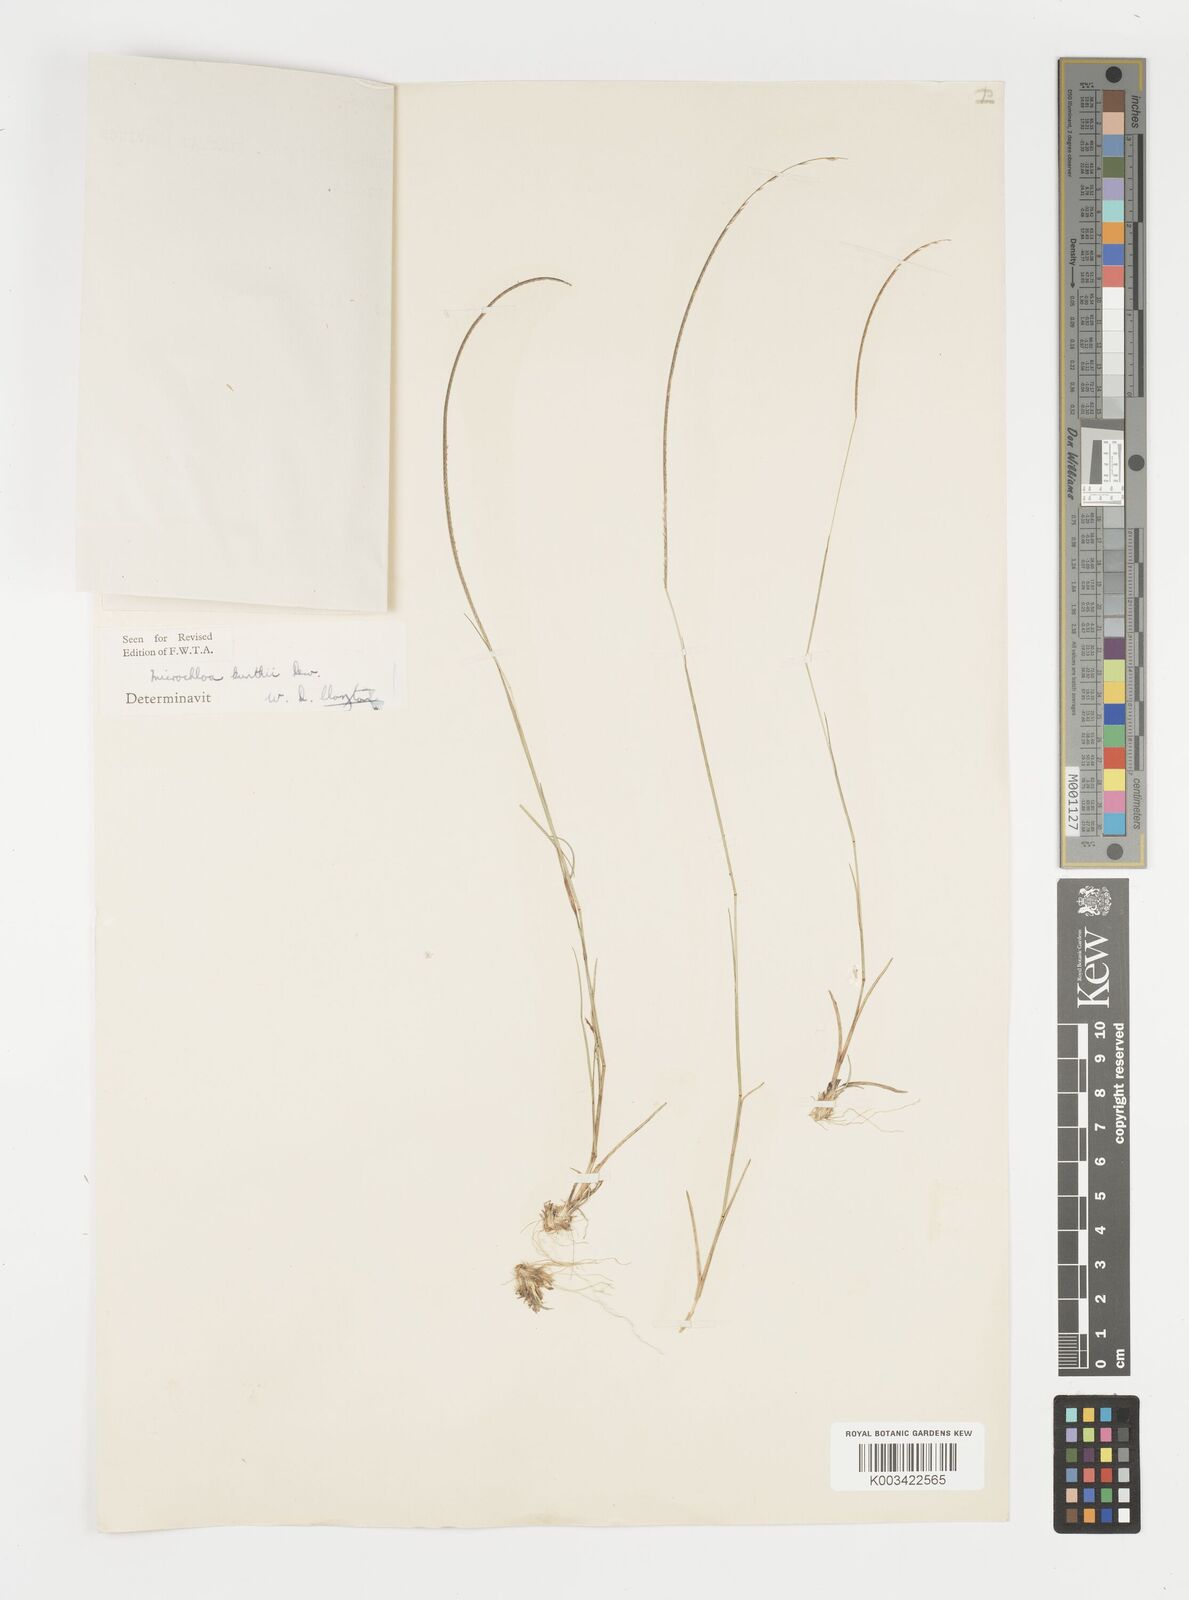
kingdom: Plantae
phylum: Tracheophyta
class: Liliopsida
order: Poales
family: Poaceae
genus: Microchloa
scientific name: Microchloa kunthii
